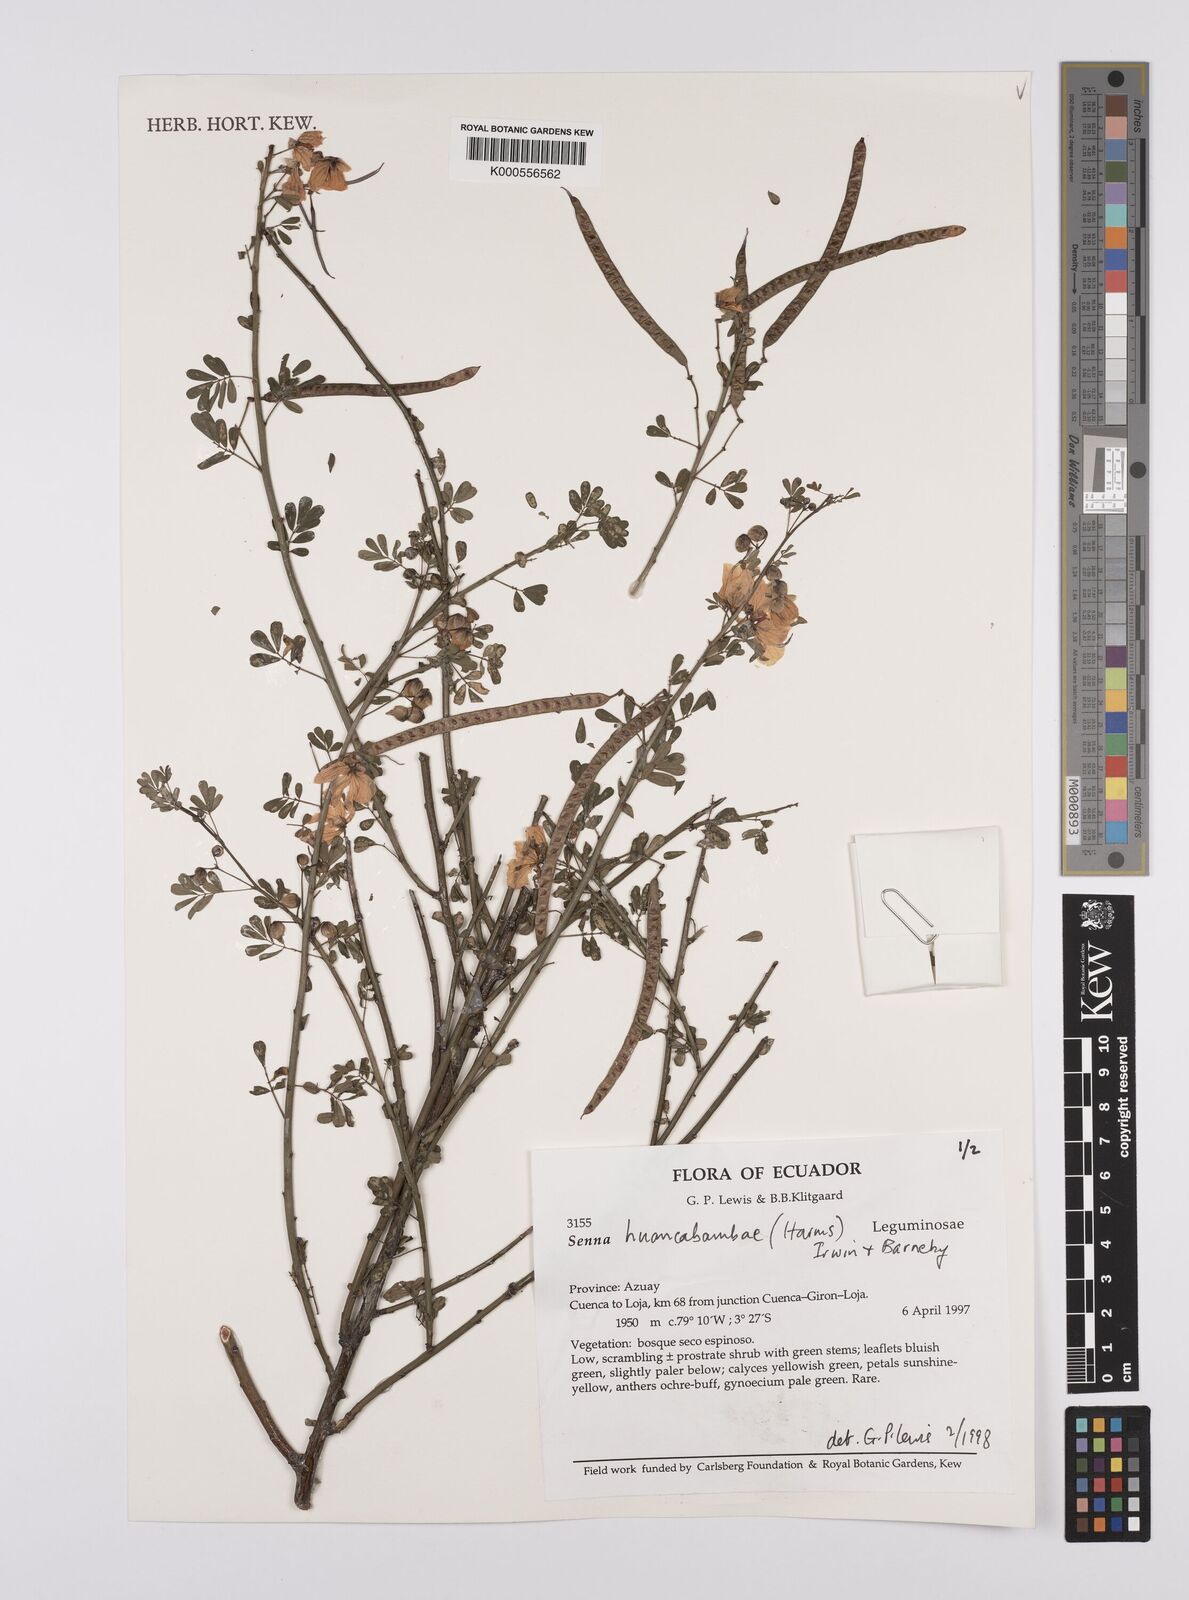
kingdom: Plantae
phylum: Tracheophyta
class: Magnoliopsida
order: Fabales
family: Fabaceae
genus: Senna
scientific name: Senna huancabambae
